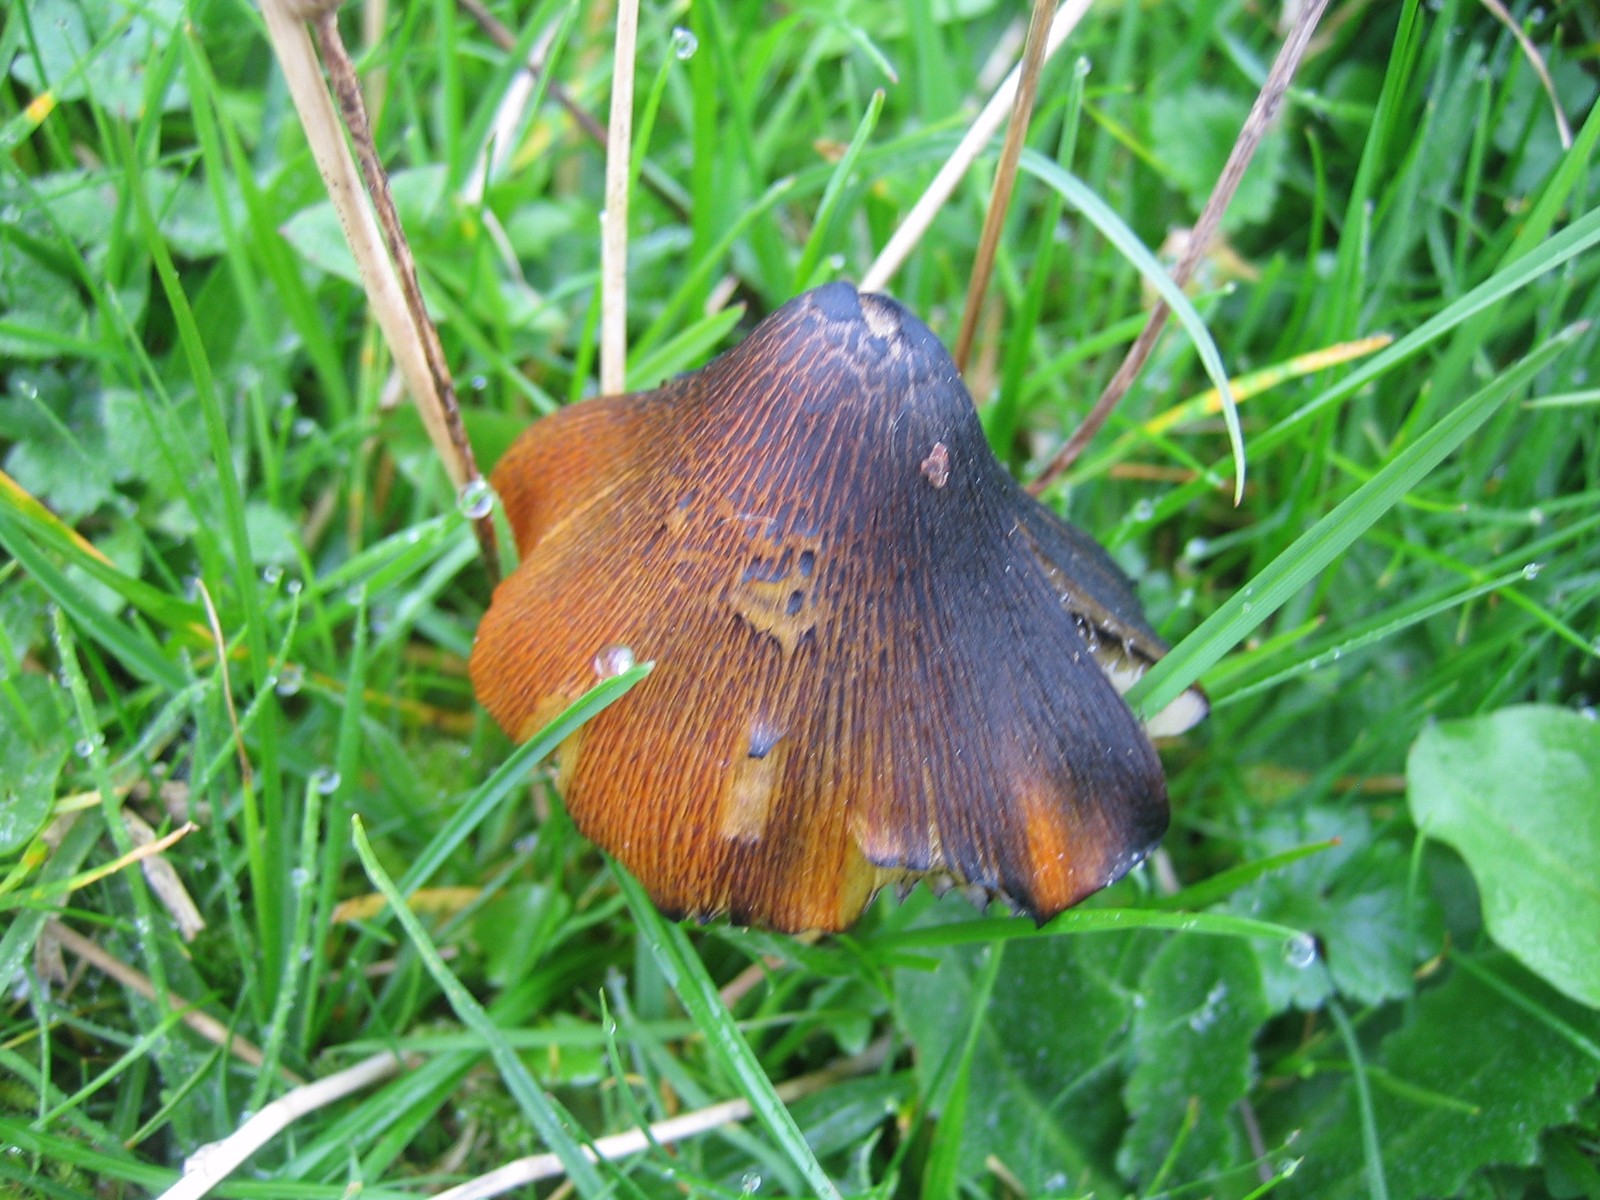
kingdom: Fungi
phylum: Basidiomycota
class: Agaricomycetes
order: Agaricales
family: Hygrophoraceae
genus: Hygrocybe
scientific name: Hygrocybe conica
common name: kegle-vokshat
